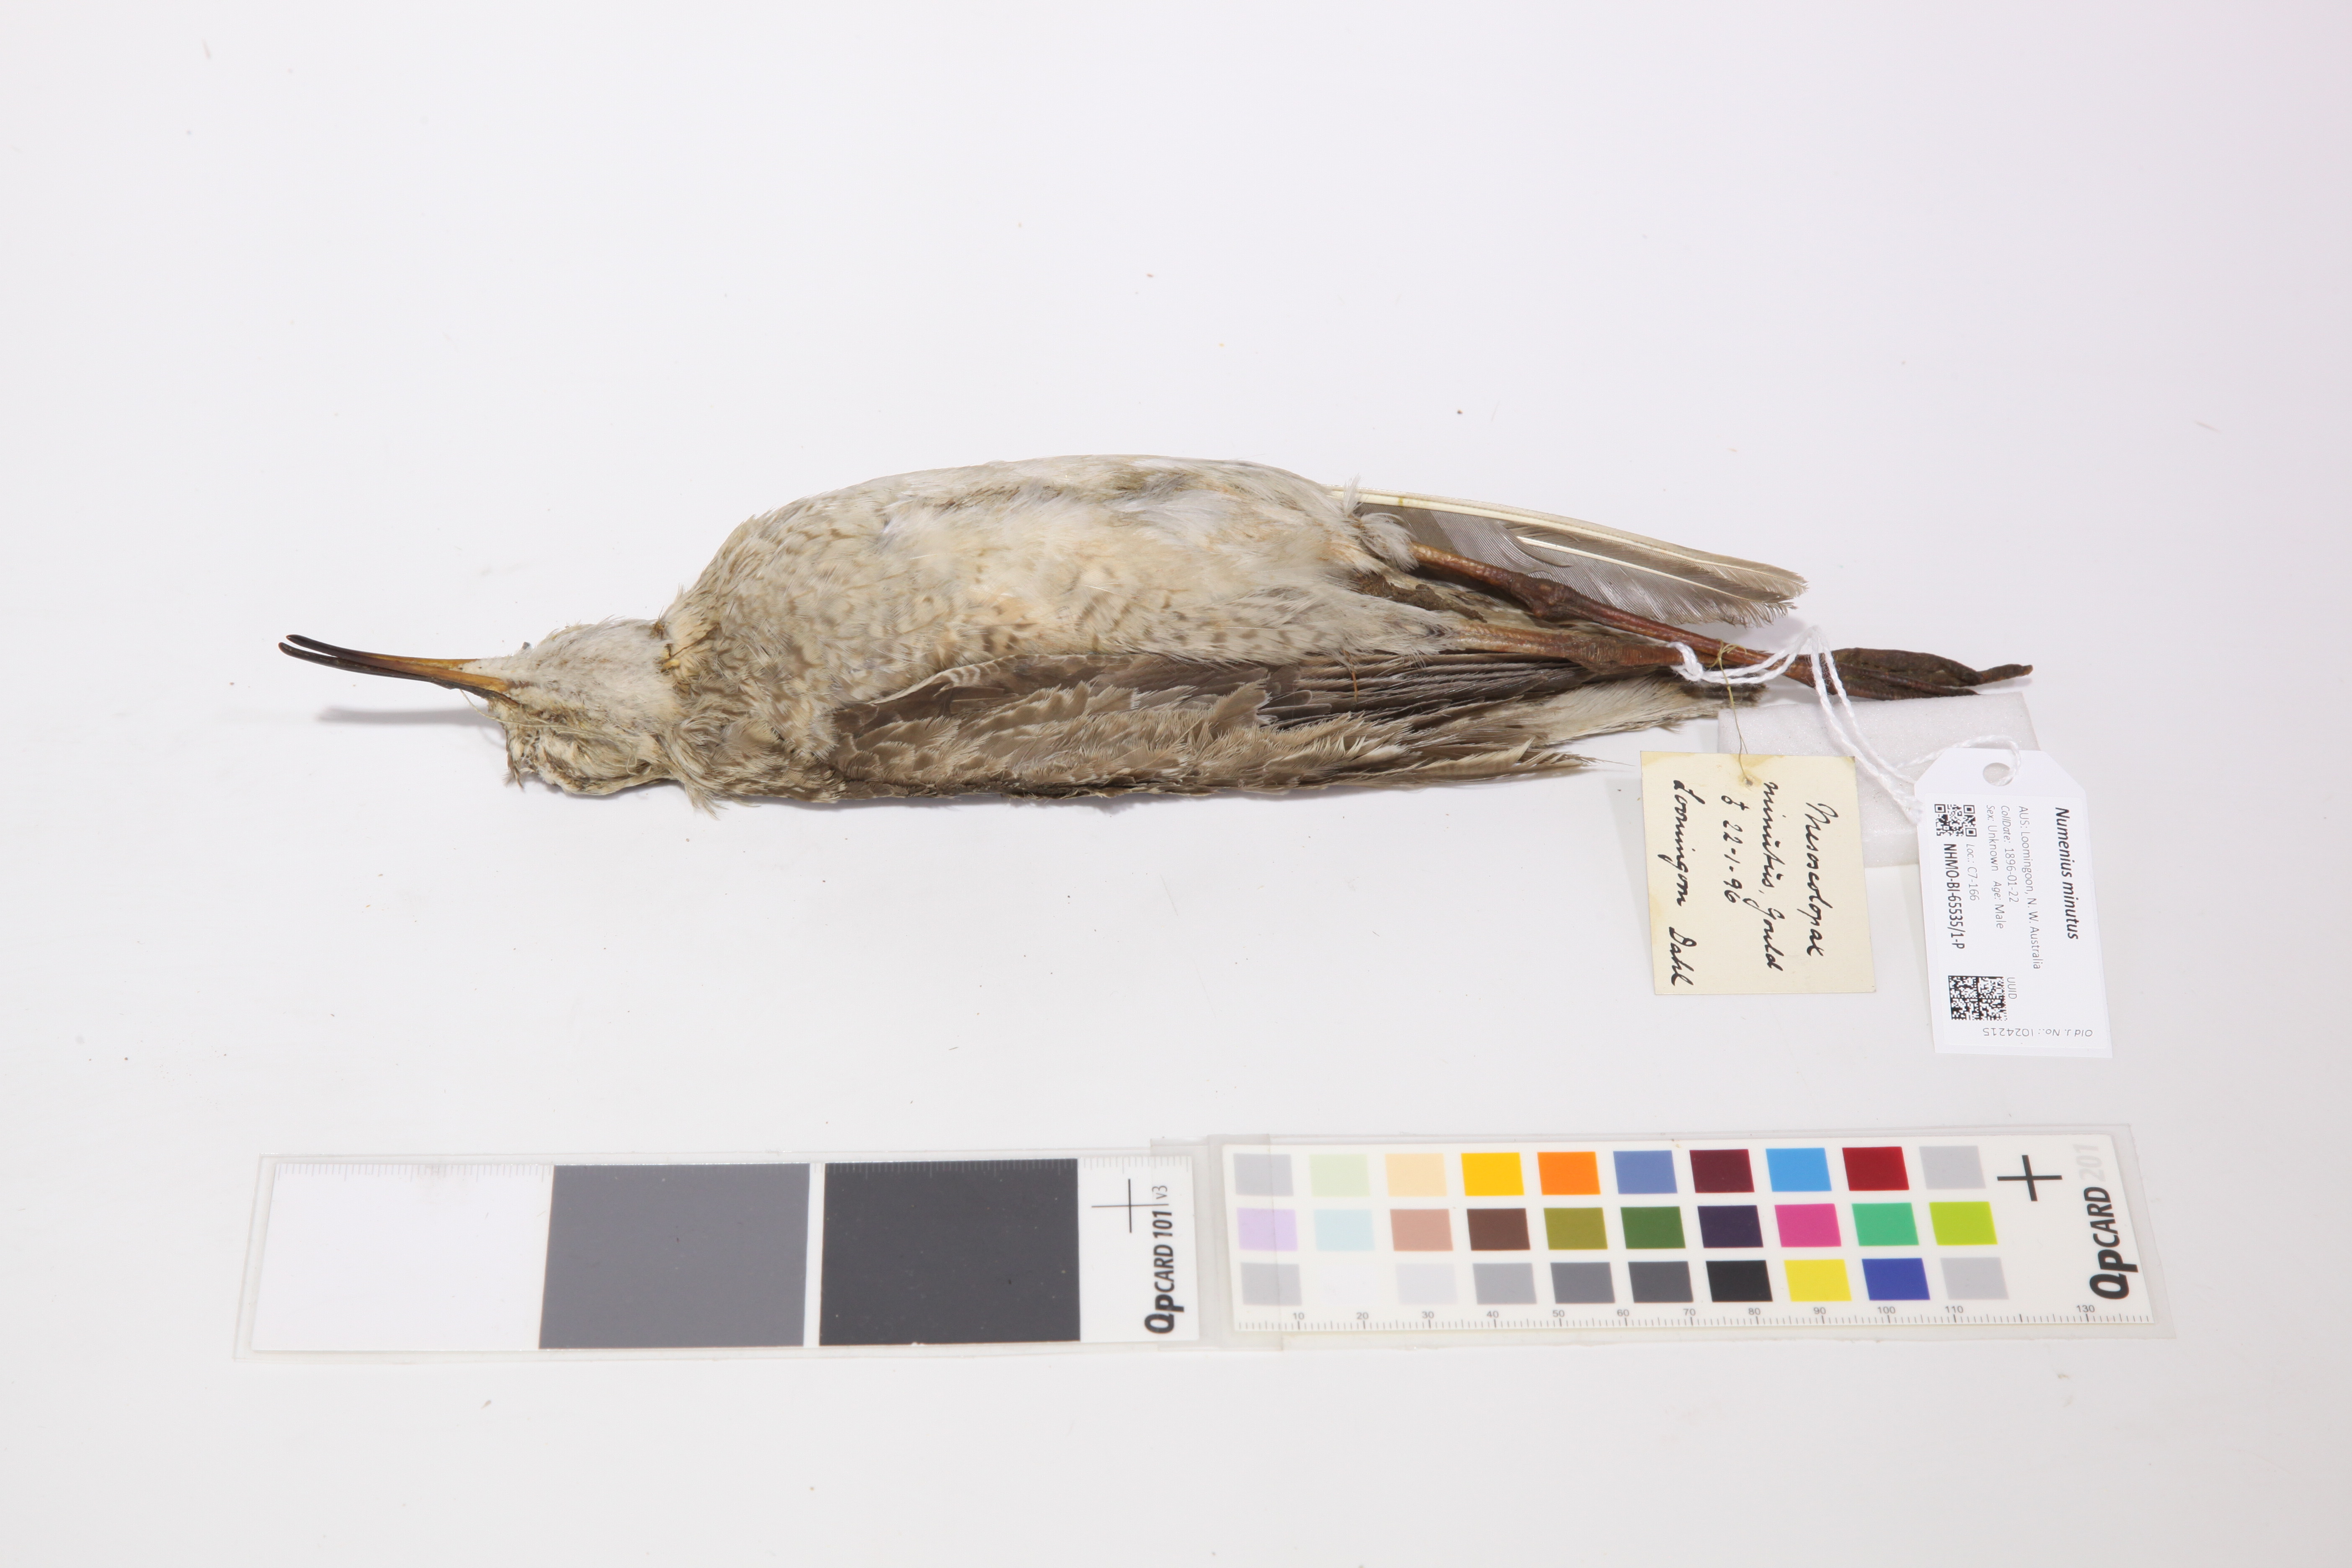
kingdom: Animalia
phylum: Chordata
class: Aves
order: Charadriiformes
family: Scolopacidae
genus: Numenius
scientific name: Numenius minutus
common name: Little curlew
